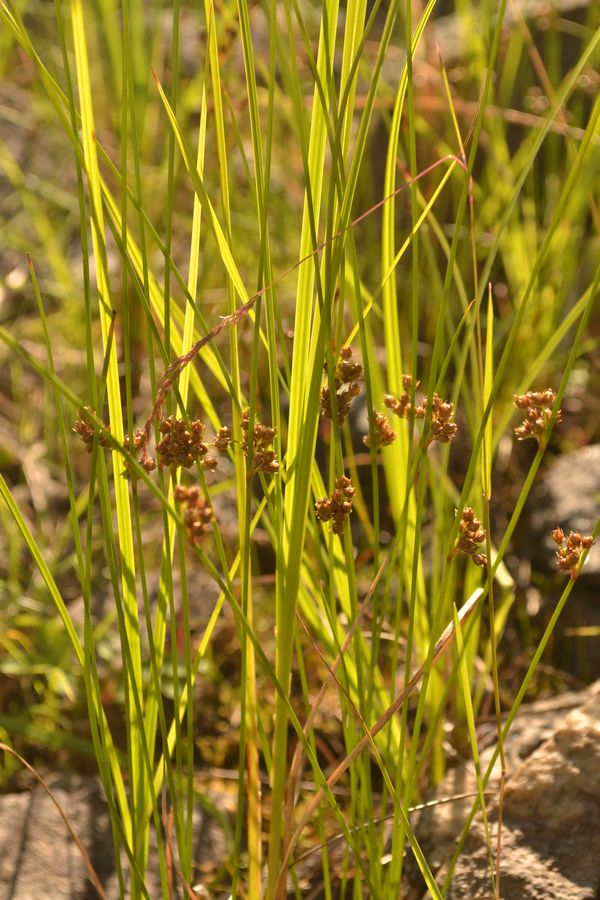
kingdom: Plantae
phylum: Tracheophyta
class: Liliopsida
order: Poales
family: Juncaceae
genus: Juncus
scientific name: Juncus filiformis
